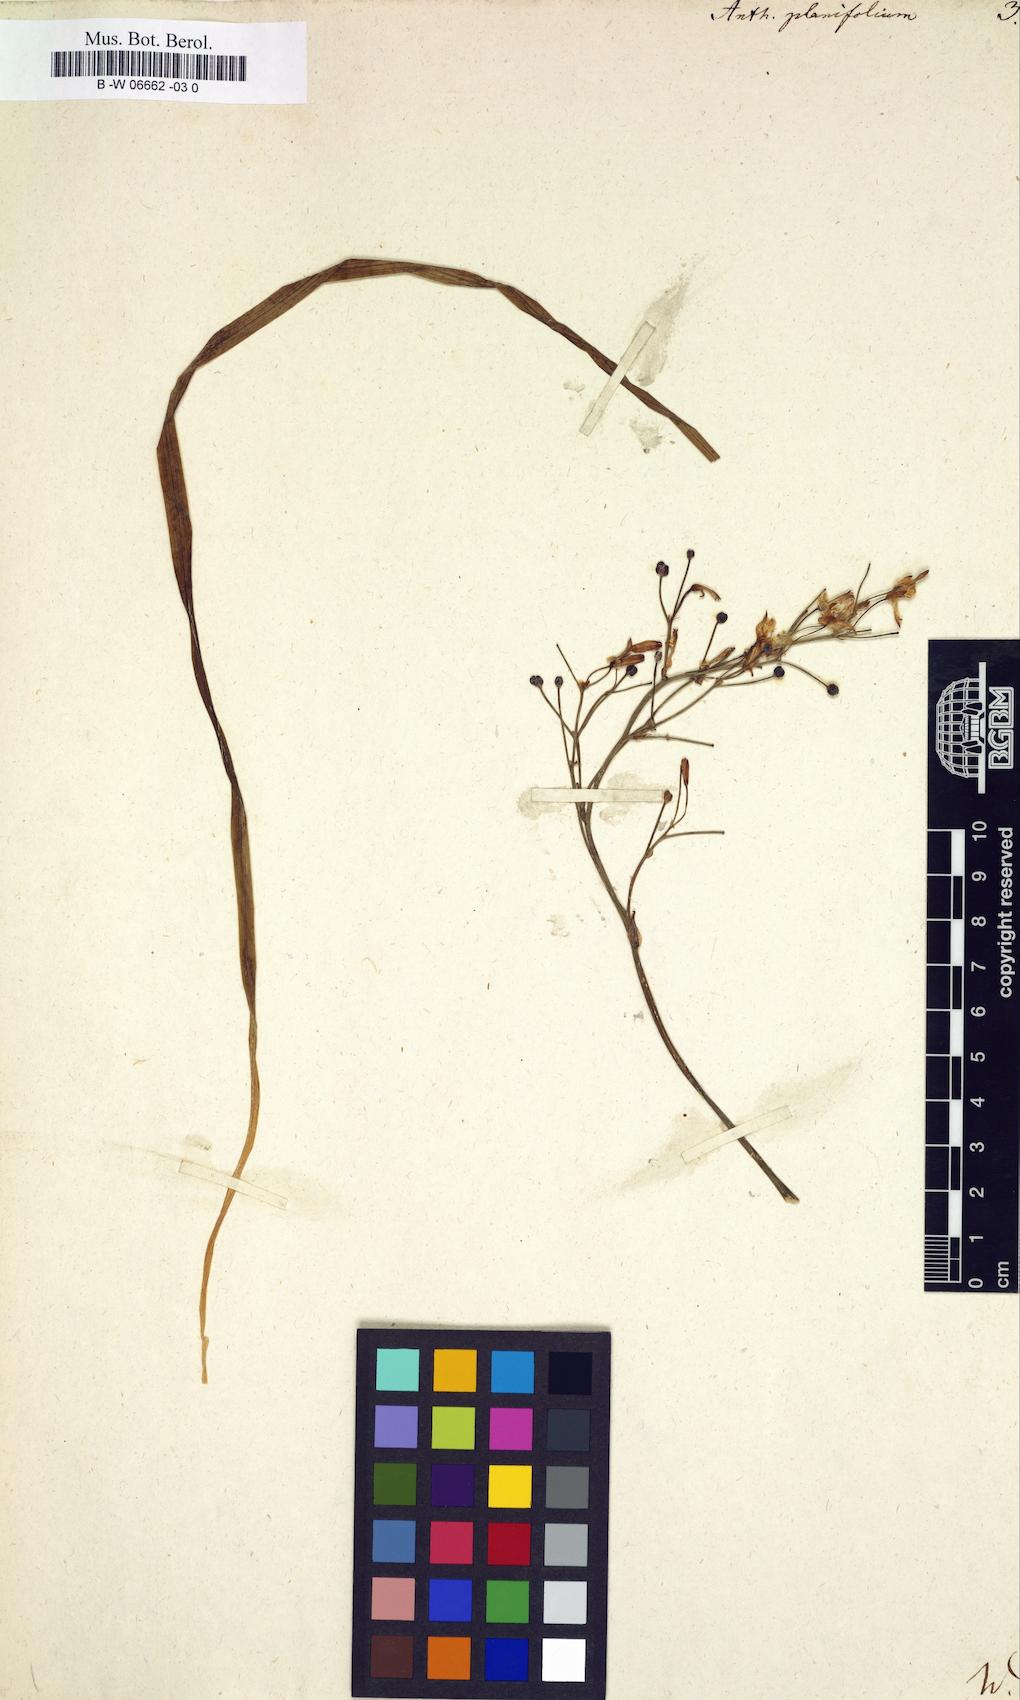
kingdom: Plantae
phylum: Tracheophyta
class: Liliopsida
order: Asparagales
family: Asphodelaceae
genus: Simethis
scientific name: Simethis mattiazzii
